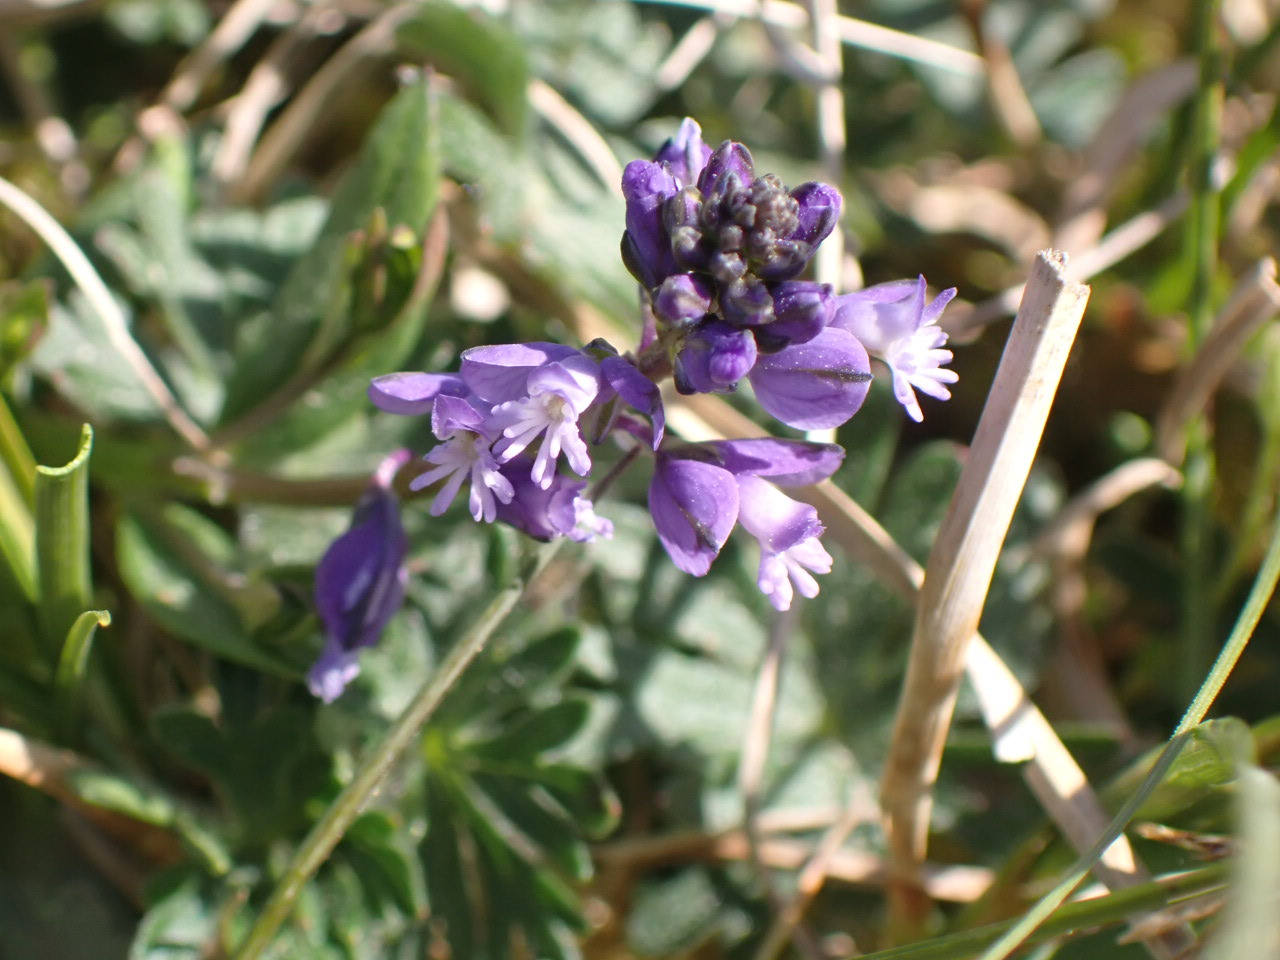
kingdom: Plantae
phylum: Tracheophyta
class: Magnoliopsida
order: Fabales
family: Polygalaceae
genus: Polygala
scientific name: Polygala vulgaris
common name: Almindelig mælkeurt
